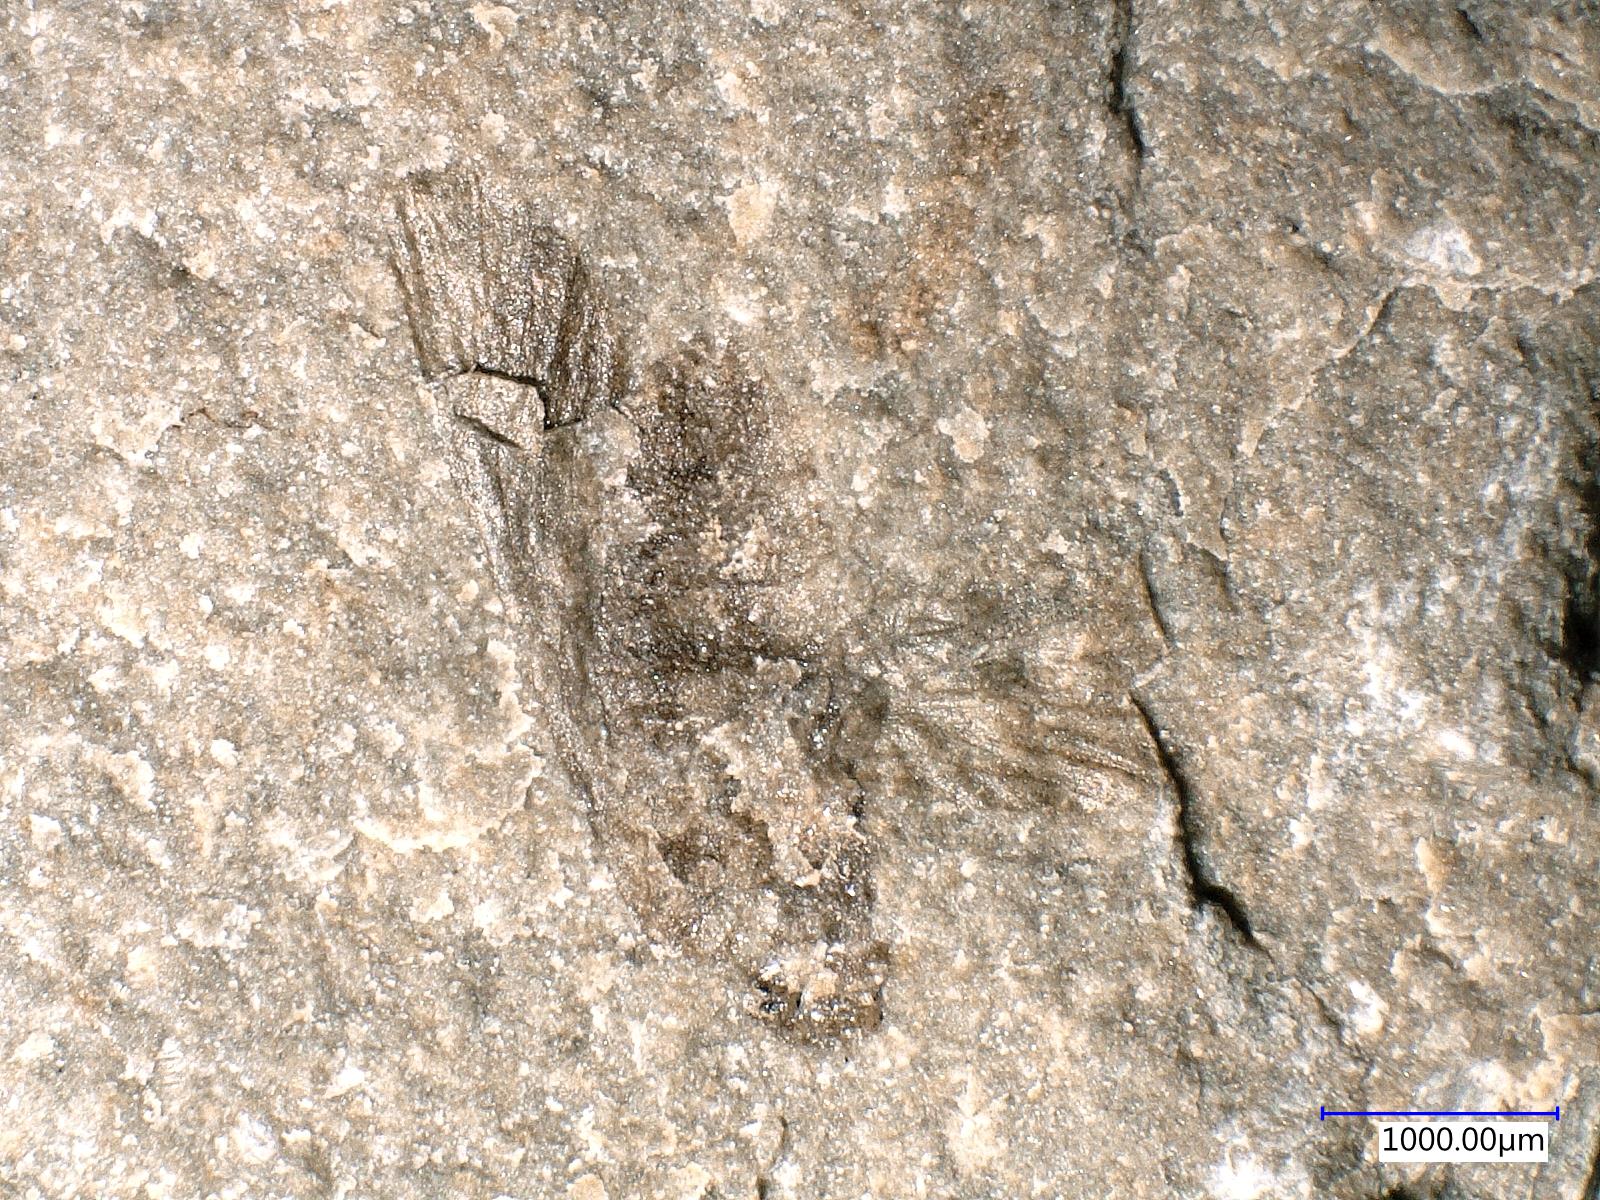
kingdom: Animalia
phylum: Arthropoda
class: Insecta
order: Trichoptera
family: Necrotauliidae
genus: Necrotaulius
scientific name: Necrotaulius
